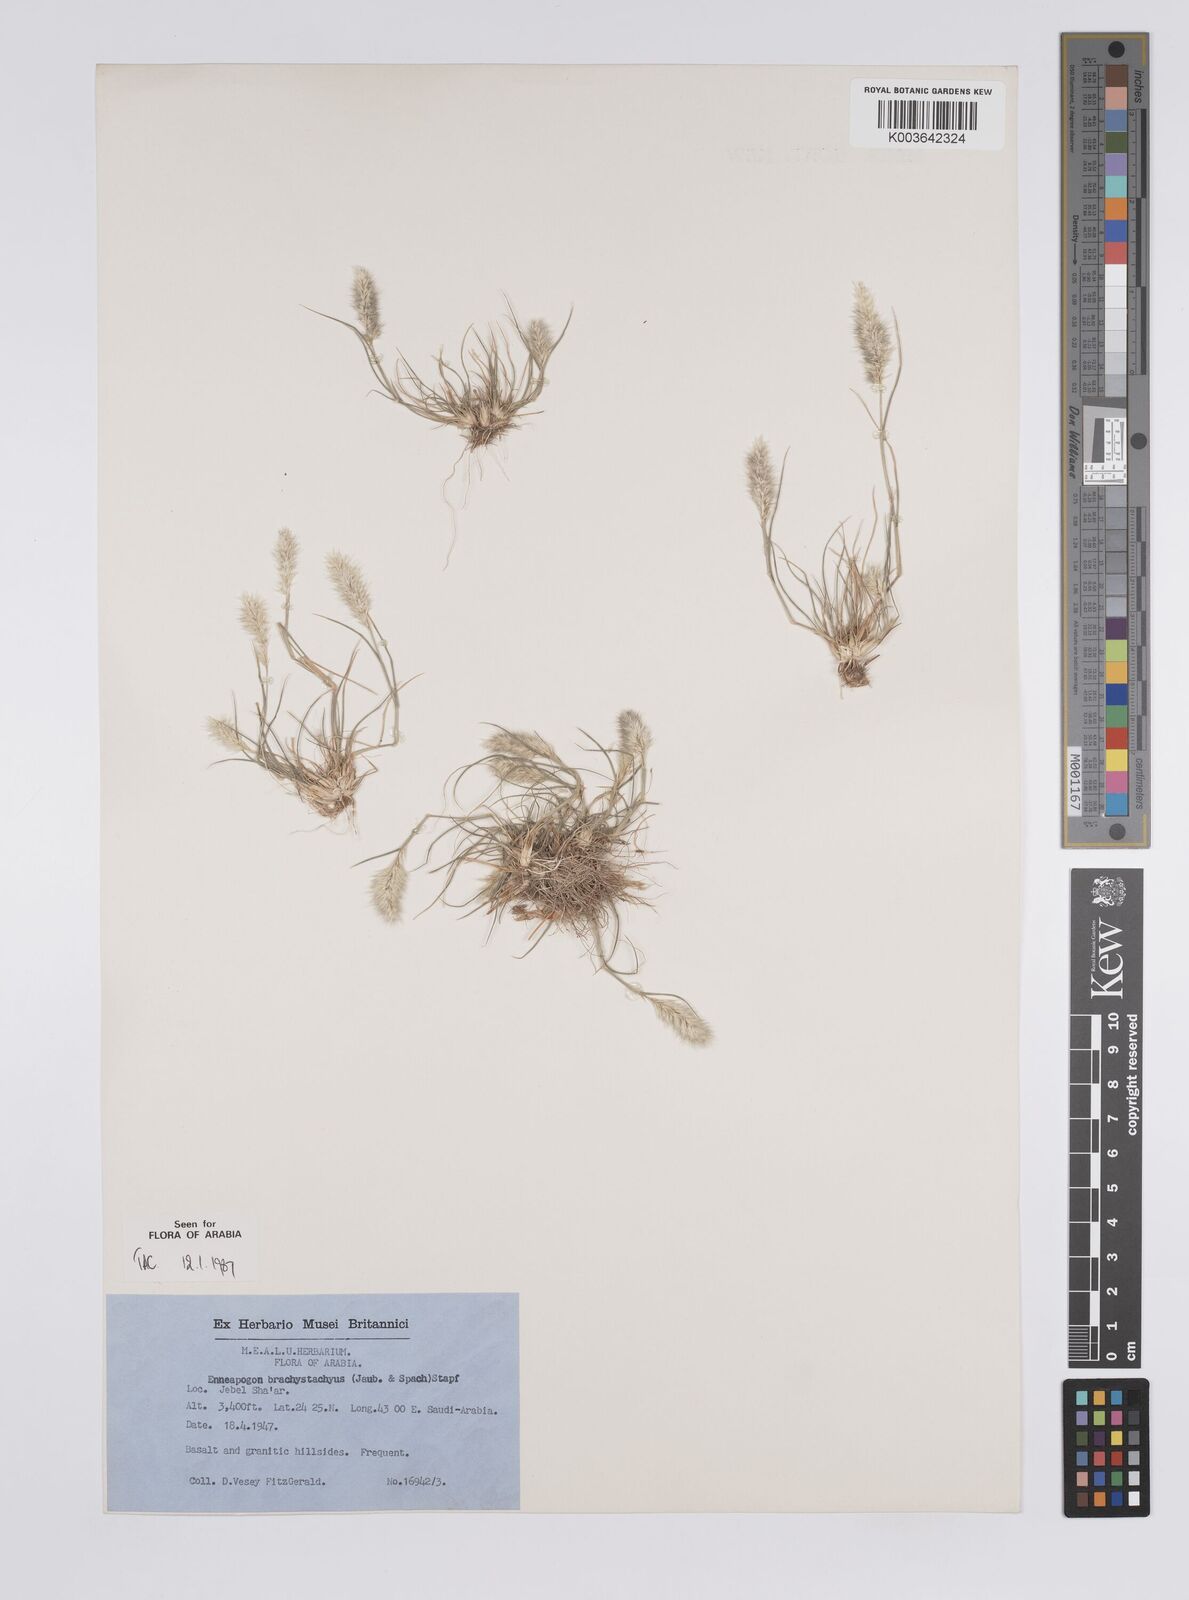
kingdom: Plantae
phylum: Tracheophyta
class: Liliopsida
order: Poales
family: Poaceae
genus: Enneapogon
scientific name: Enneapogon desvauxii
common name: Feather pappus grass
